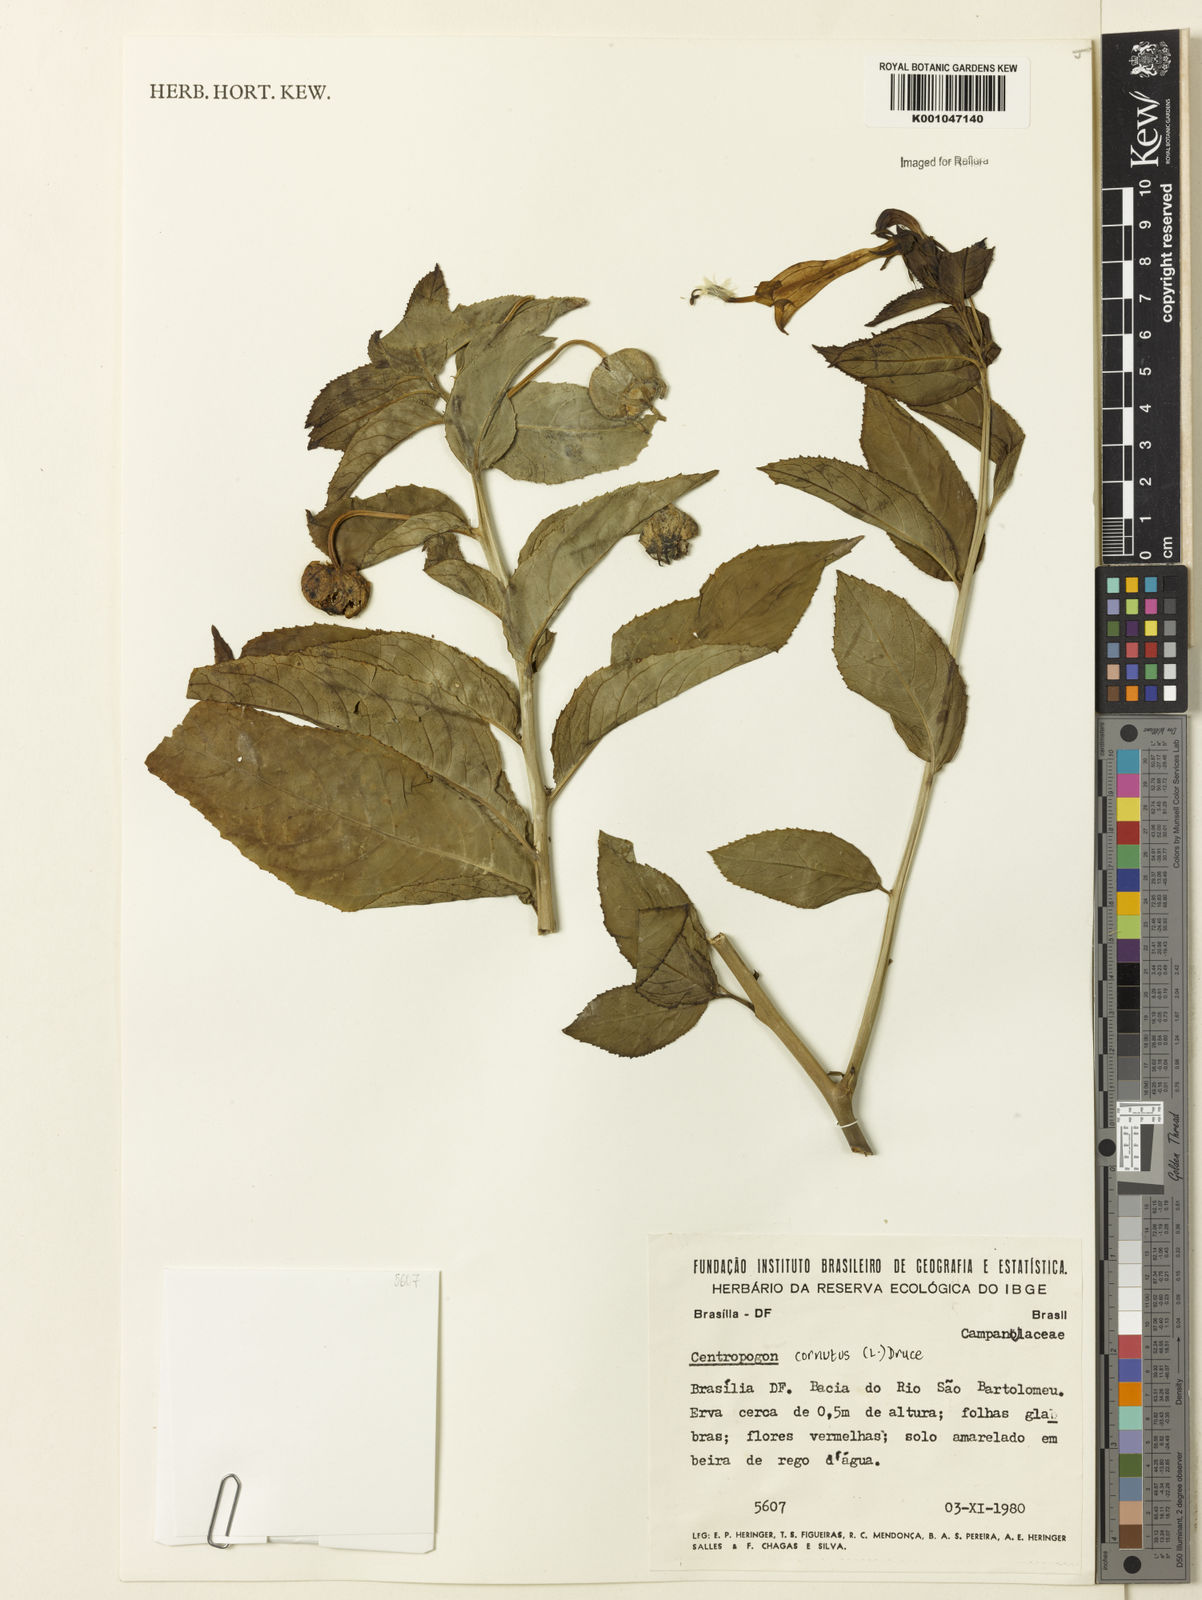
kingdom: Plantae
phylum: Tracheophyta
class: Magnoliopsida
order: Asterales
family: Campanulaceae
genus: Centropogon
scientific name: Centropogon cornutus
